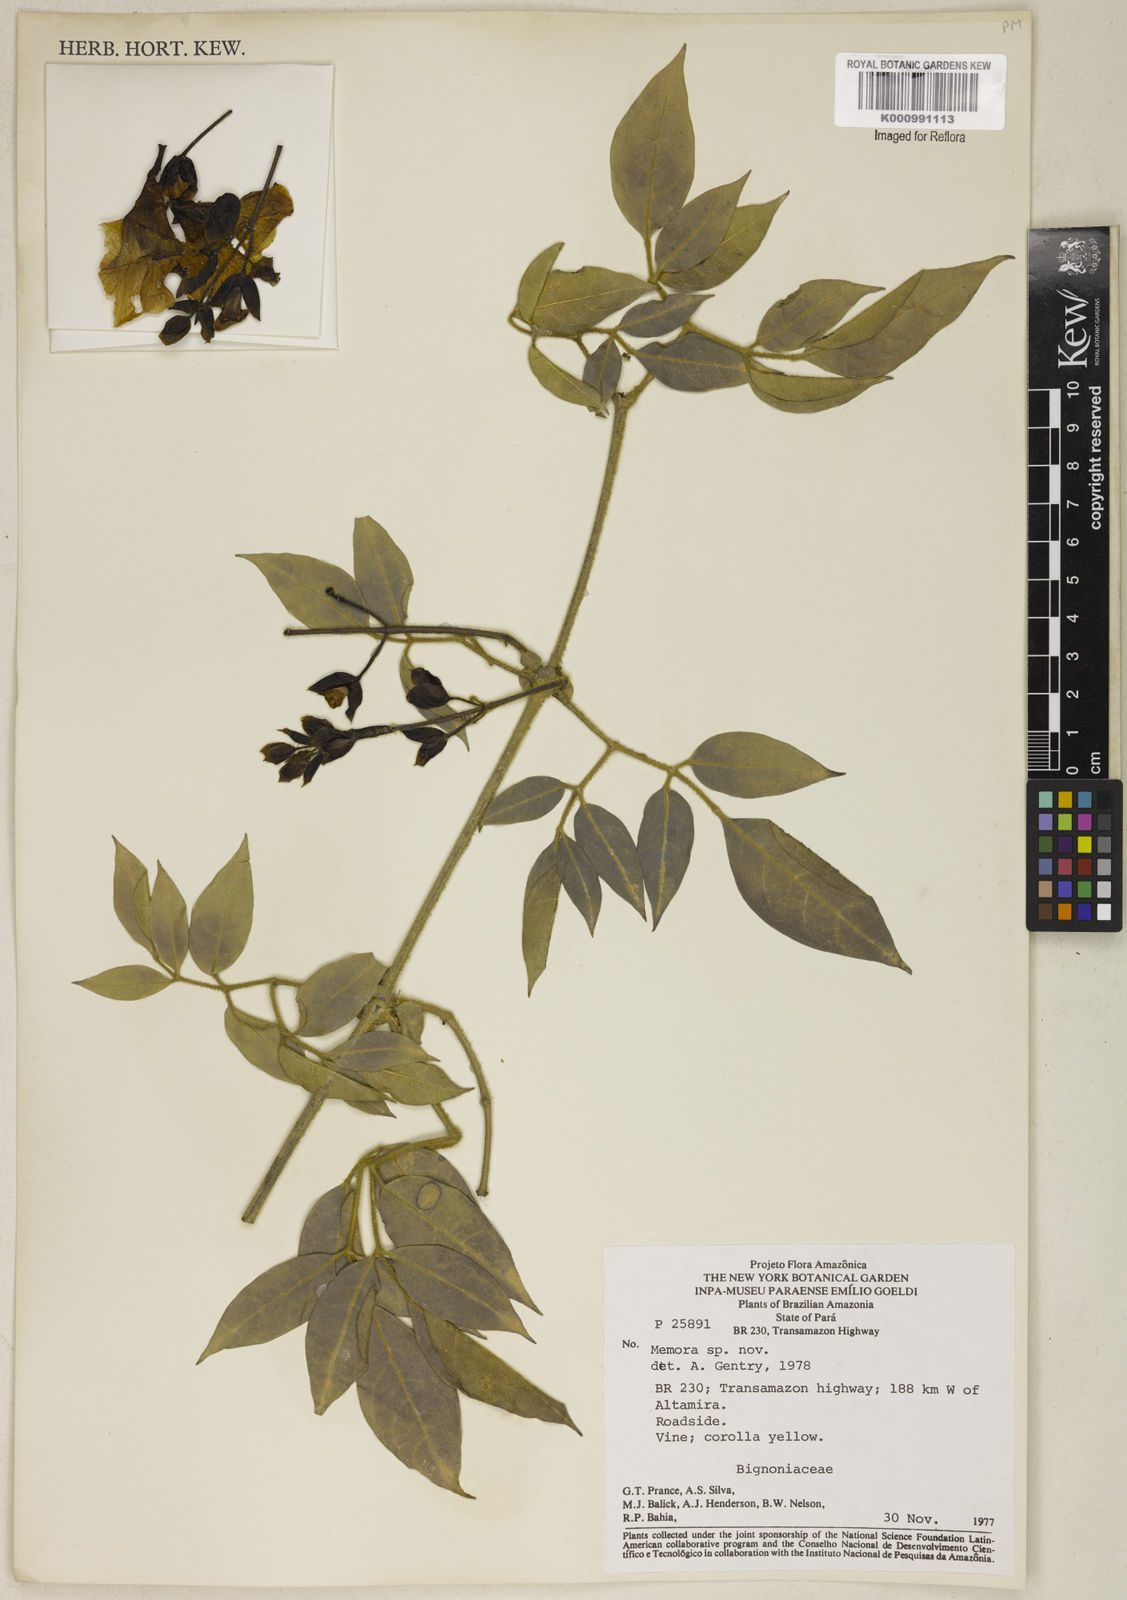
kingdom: Plantae
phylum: Tracheophyta
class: Magnoliopsida
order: Lamiales
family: Bignoniaceae
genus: Adenocalymma
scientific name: Adenocalymma velutinum
